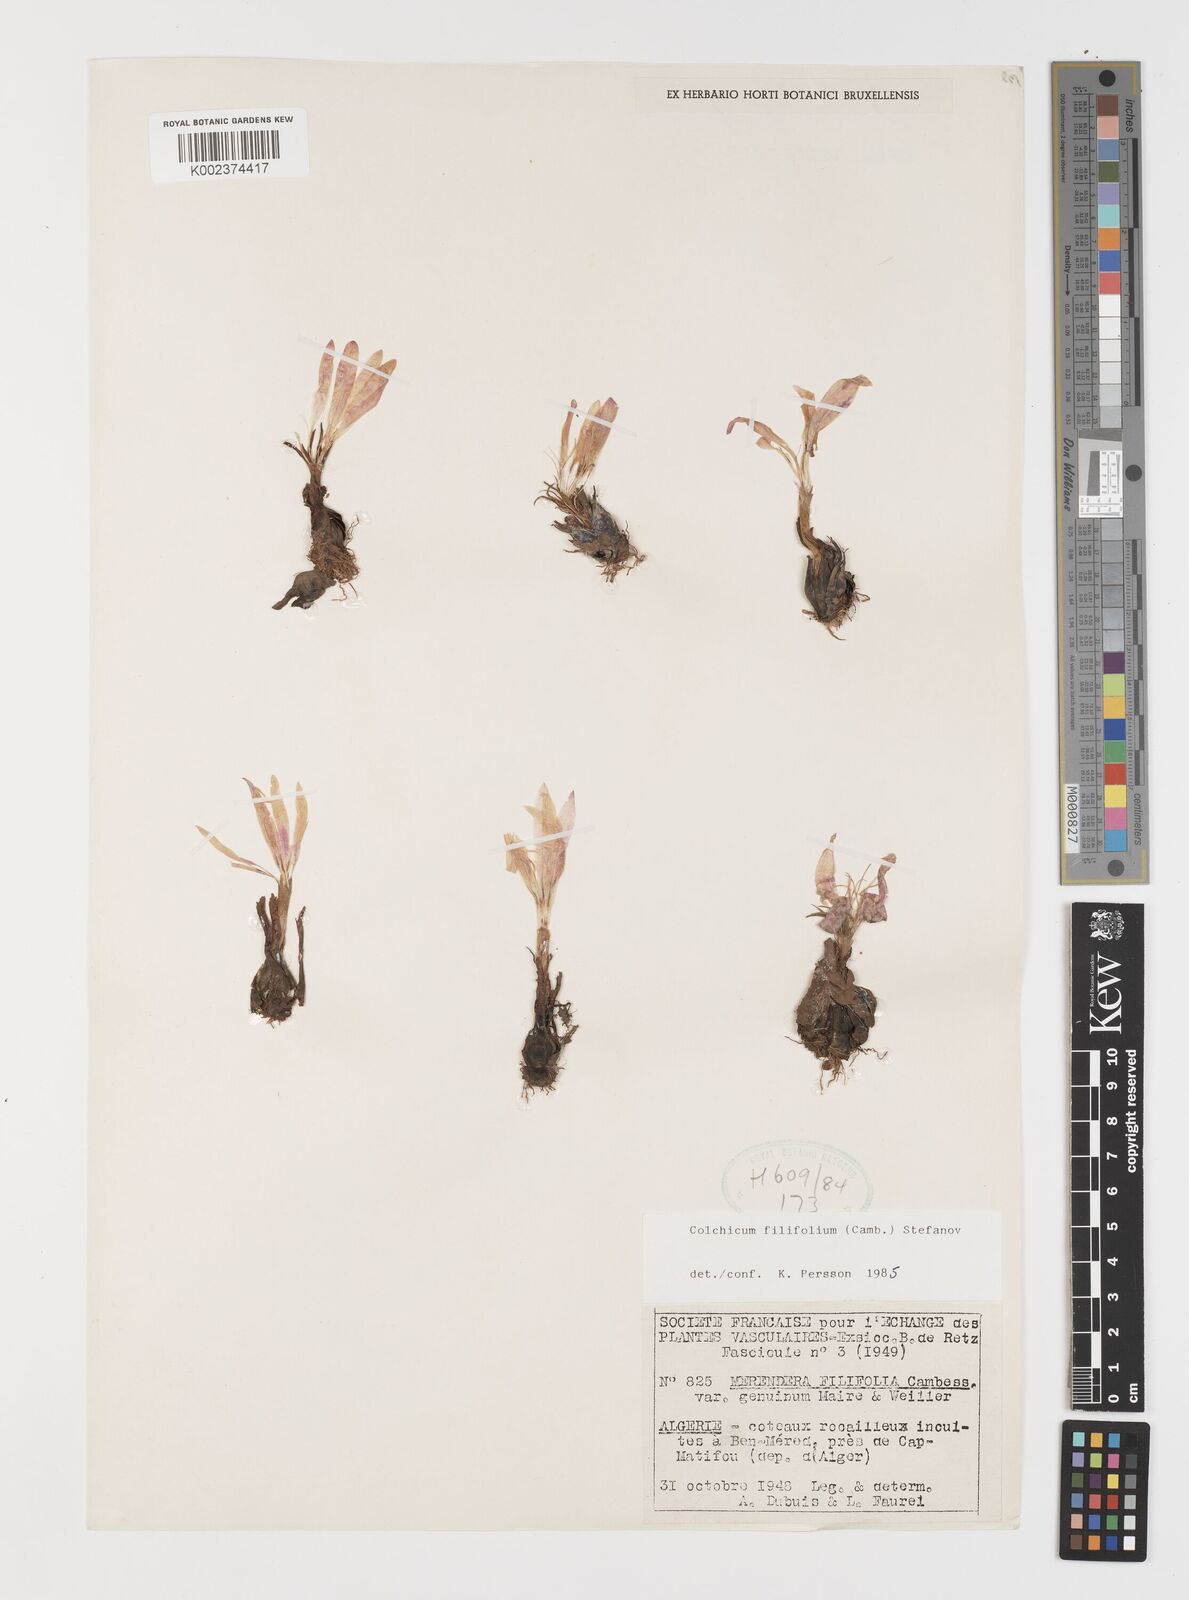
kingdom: Plantae
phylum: Tracheophyta
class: Liliopsida
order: Liliales
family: Colchicaceae
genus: Colchicum
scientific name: Colchicum filifolium
